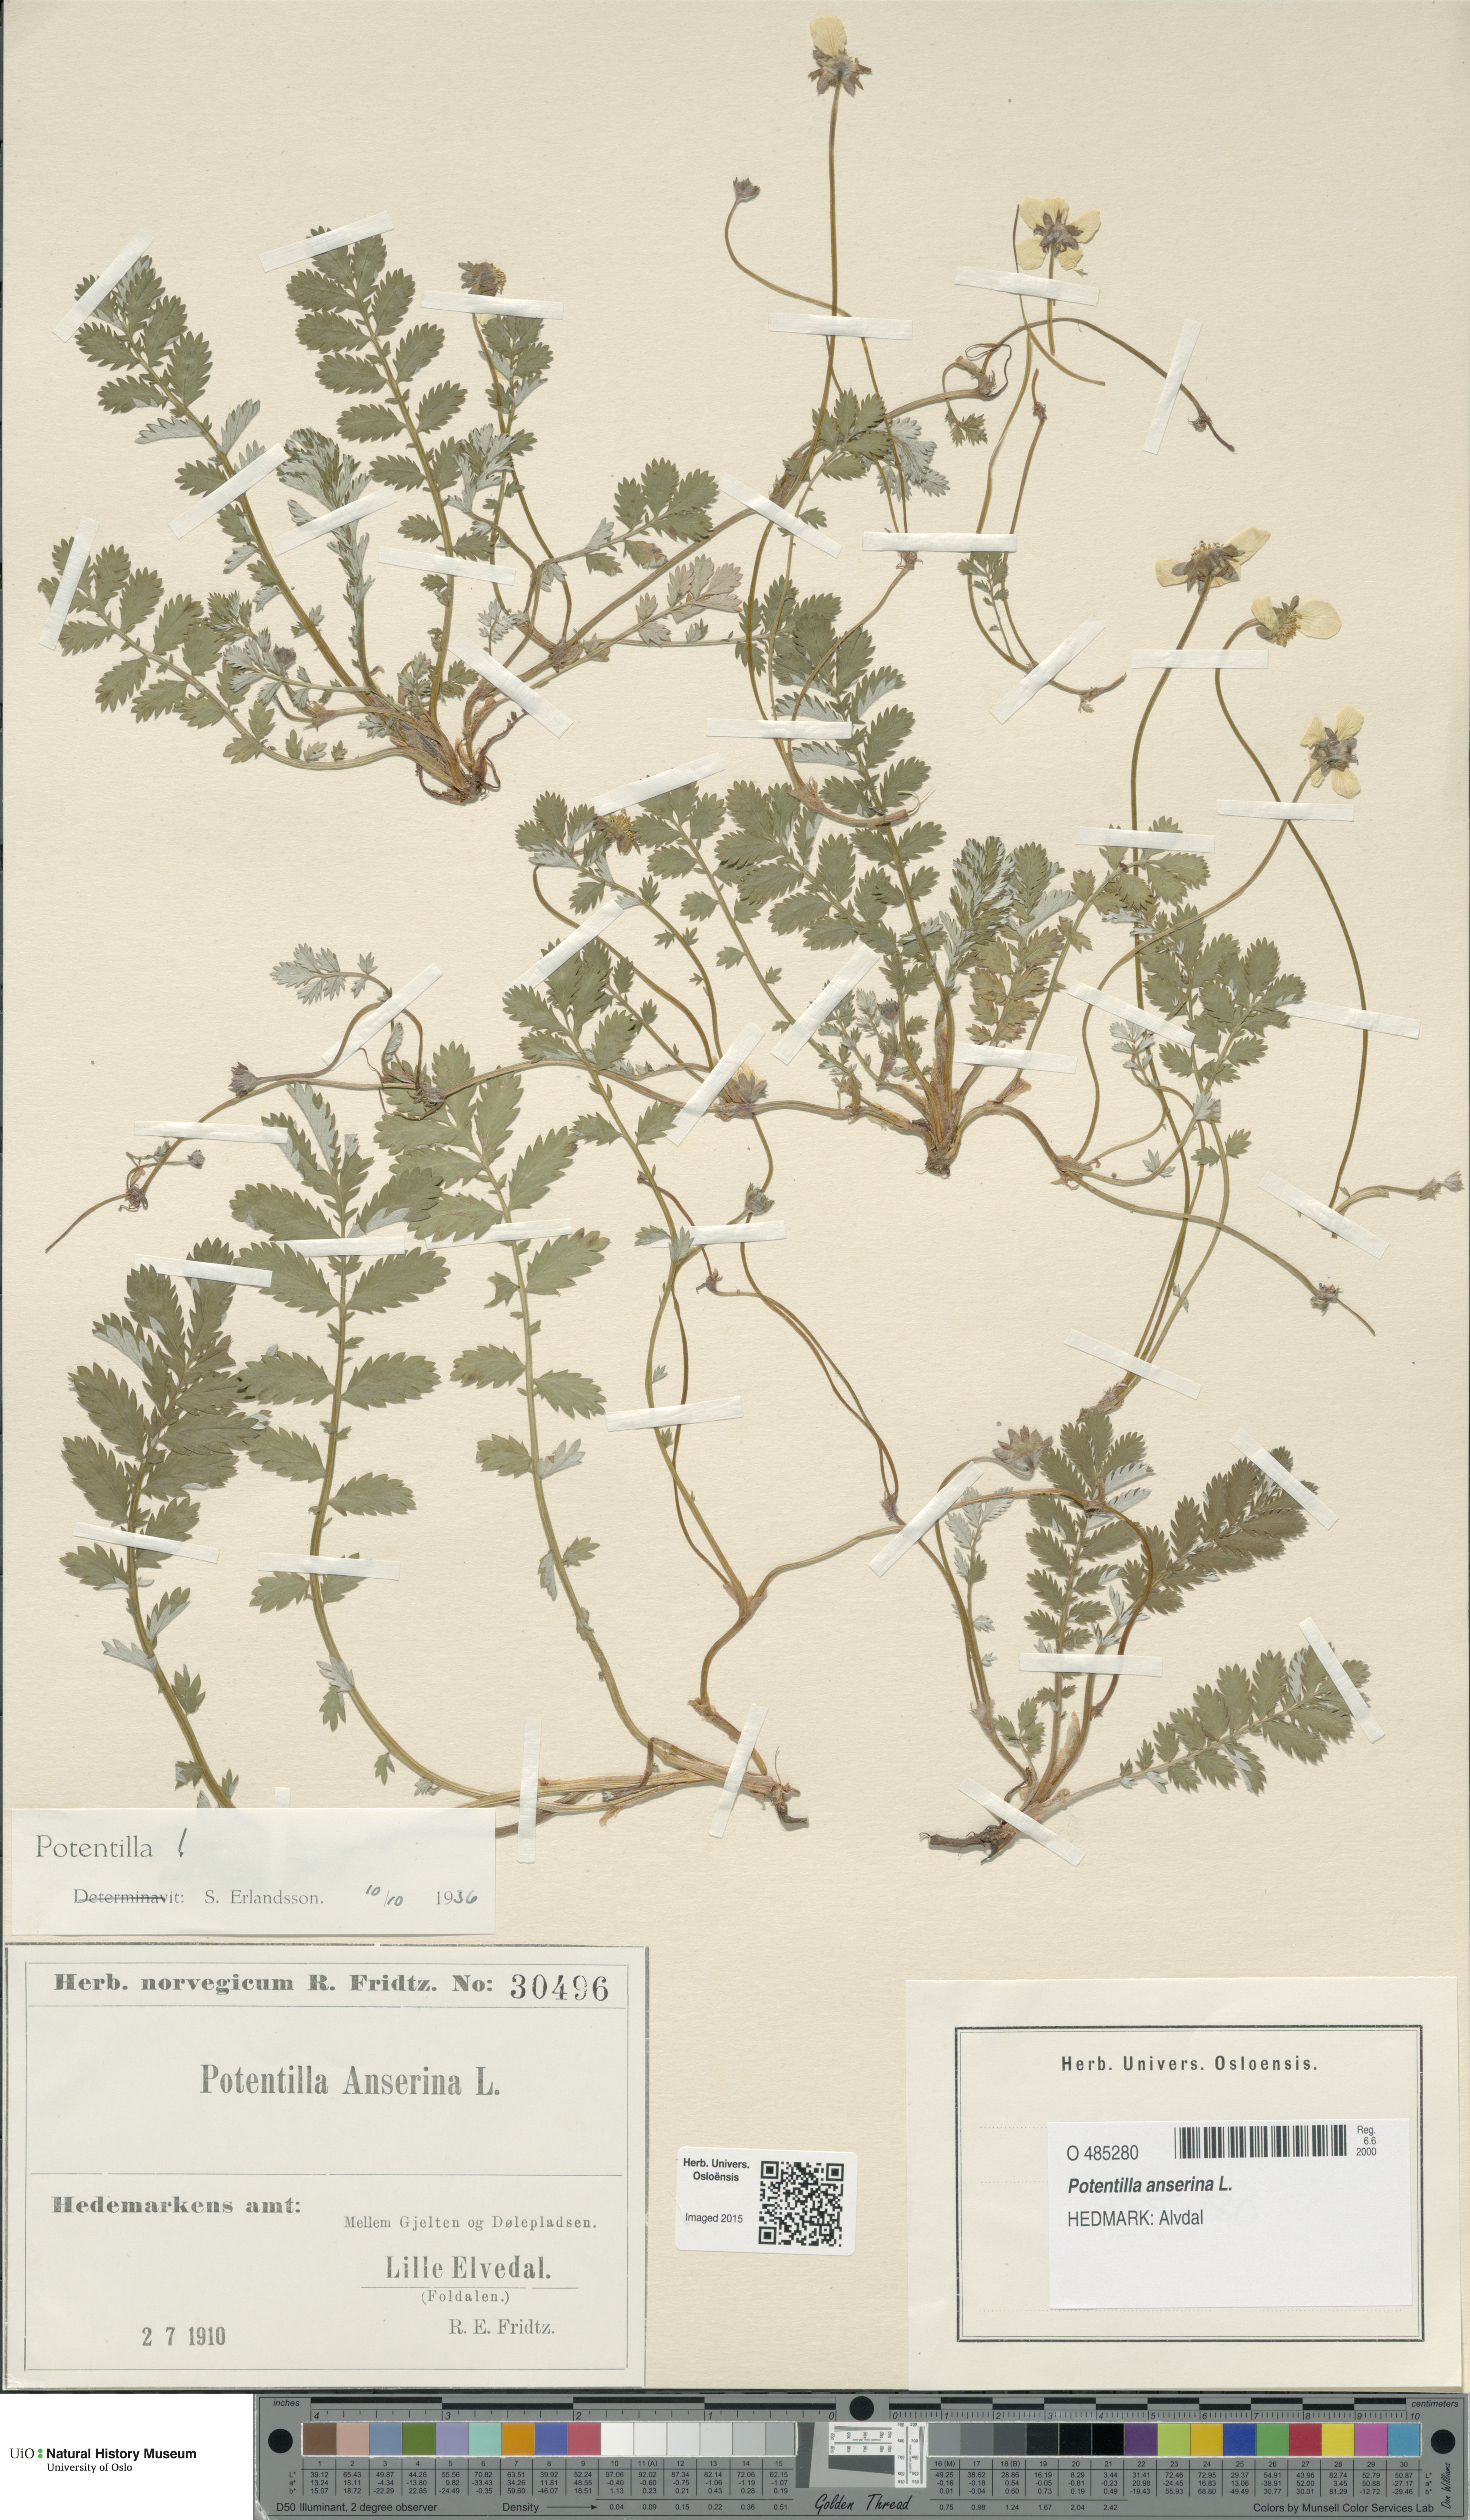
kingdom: Plantae
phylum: Tracheophyta
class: Magnoliopsida
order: Rosales
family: Rosaceae
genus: Argentina
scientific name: Argentina anserina
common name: Common silverweed
